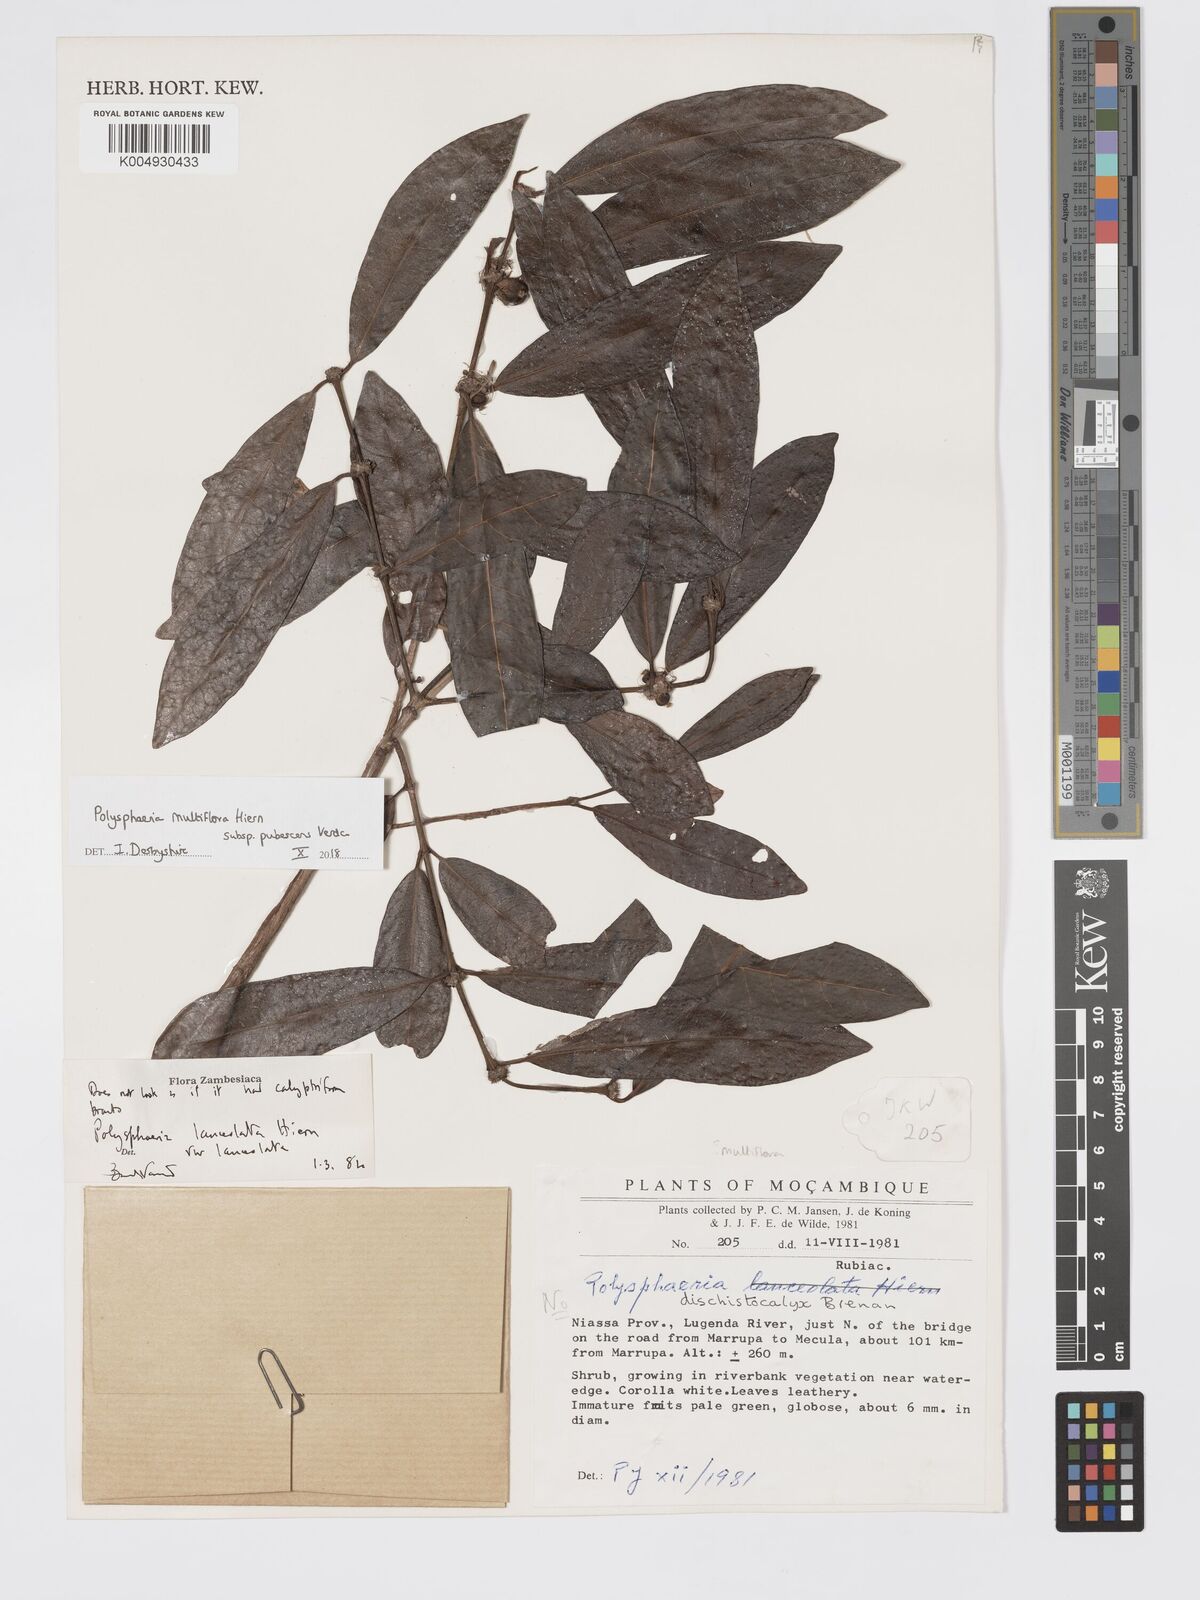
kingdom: Plantae
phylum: Tracheophyta
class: Magnoliopsida
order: Gentianales
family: Rubiaceae
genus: Polysphaeria
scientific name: Polysphaeria multiflora
